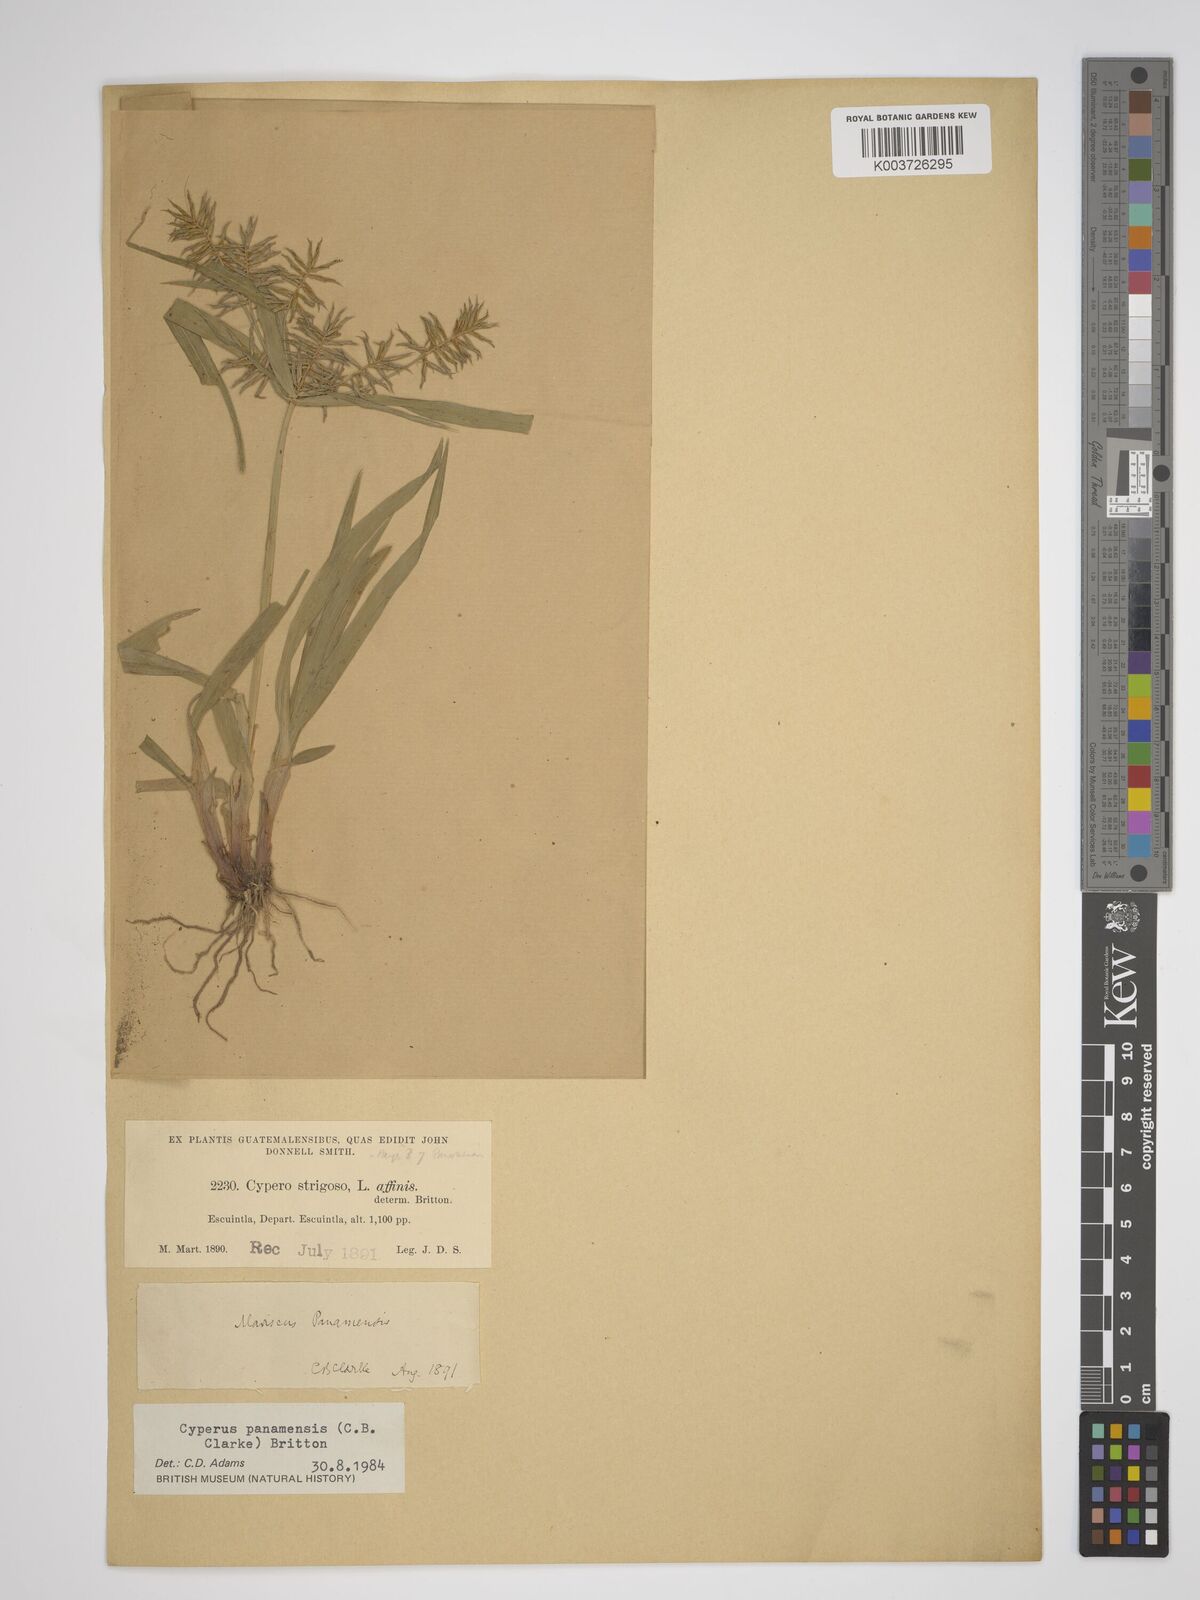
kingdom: Plantae
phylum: Tracheophyta
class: Liliopsida
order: Poales
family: Cyperaceae
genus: Cyperus
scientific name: Cyperus panamensis
